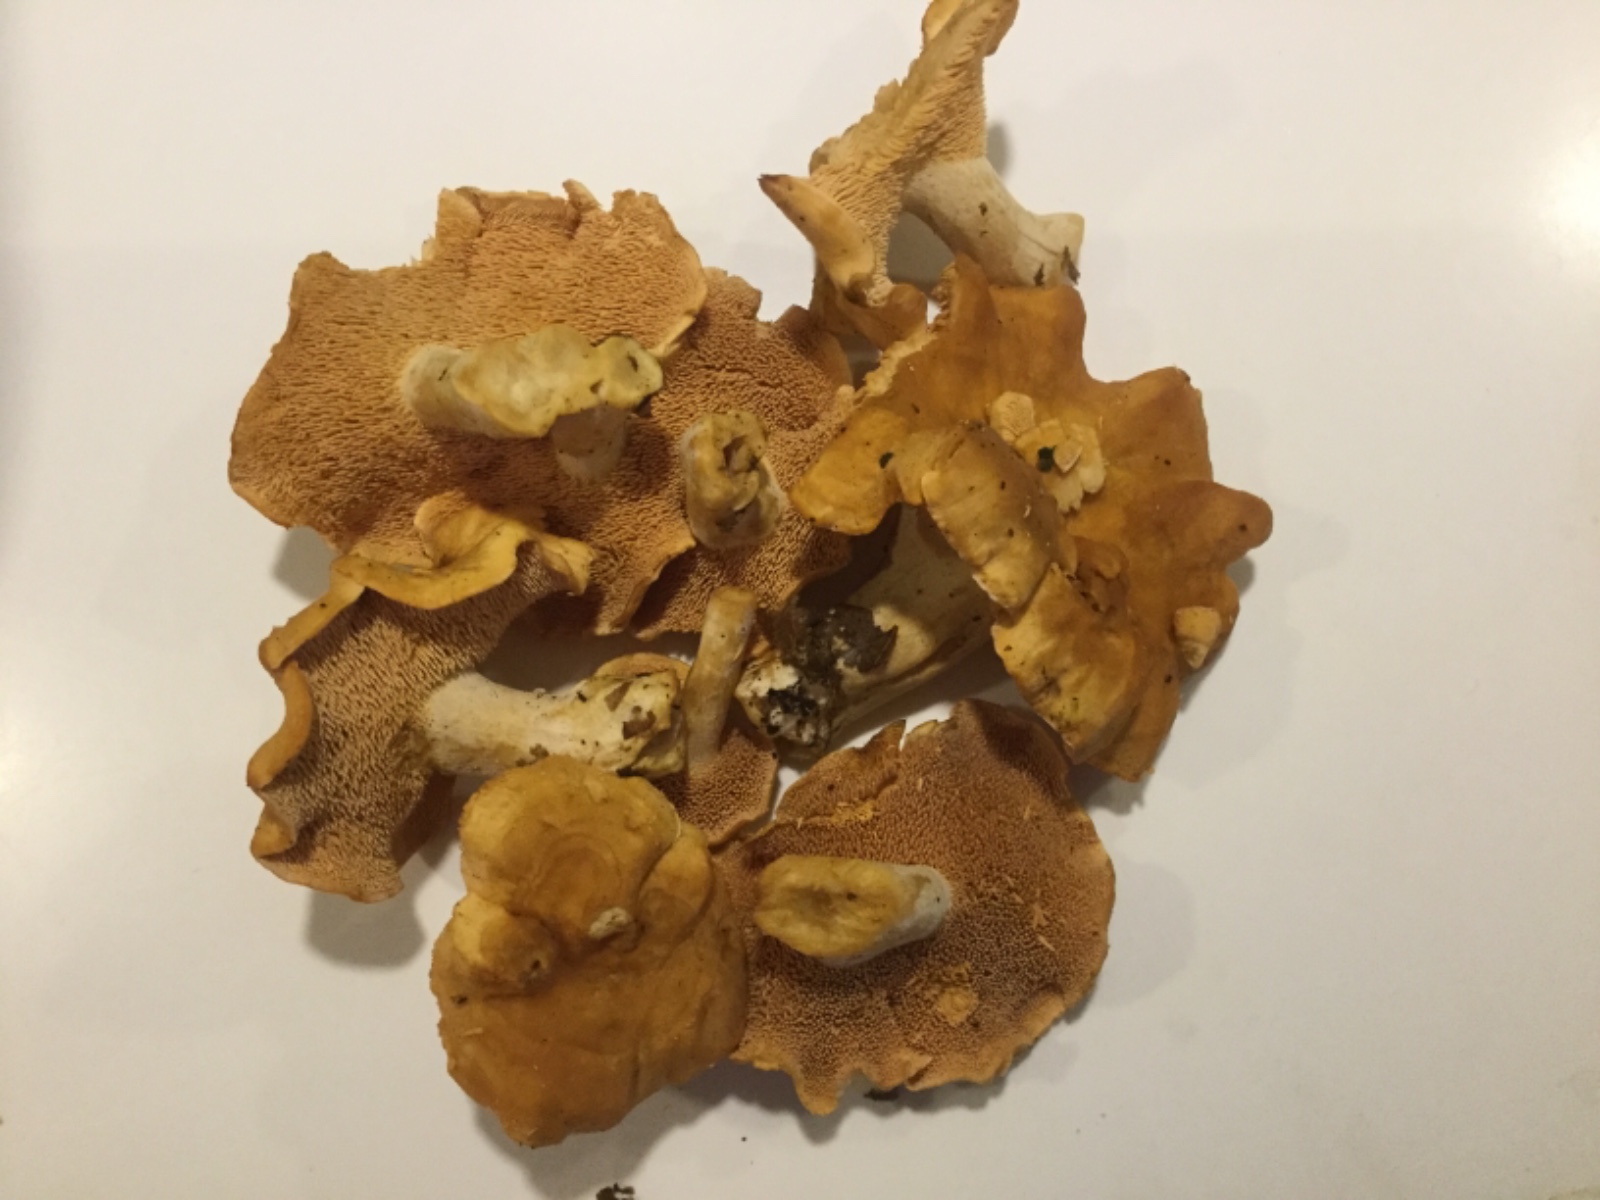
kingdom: Fungi
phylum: Basidiomycota
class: Agaricomycetes
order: Cantharellales
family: Hydnaceae
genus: Hydnum
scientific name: Hydnum
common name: pigsvamp
